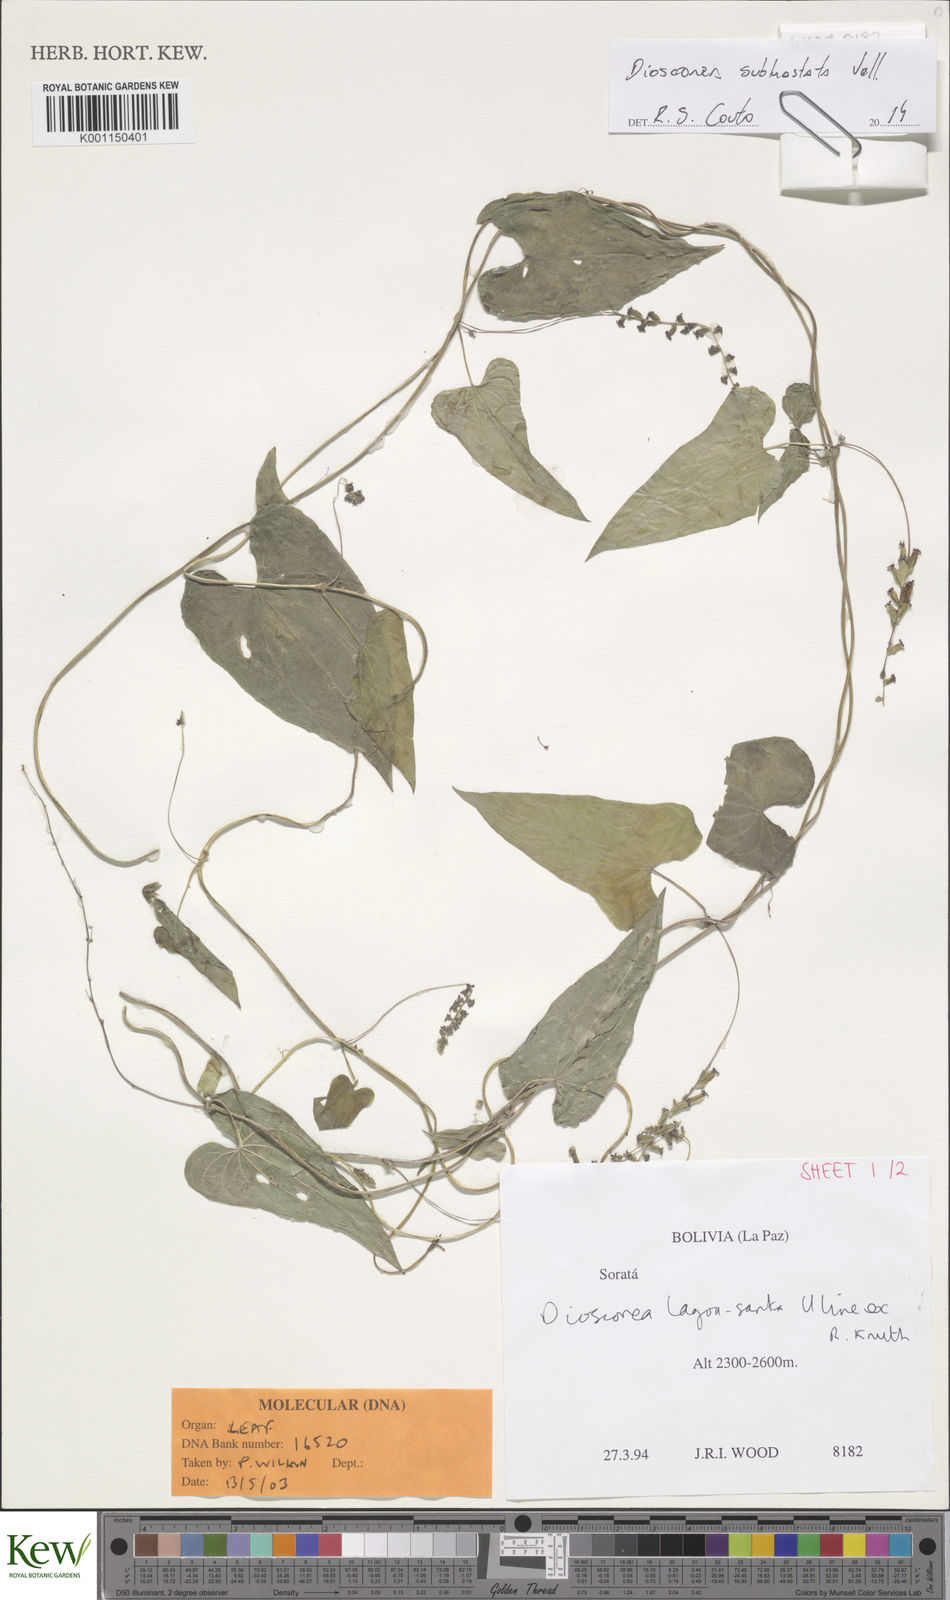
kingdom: Plantae
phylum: Tracheophyta
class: Liliopsida
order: Dioscoreales
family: Dioscoreaceae
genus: Dioscorea
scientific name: Dioscorea subhastata
